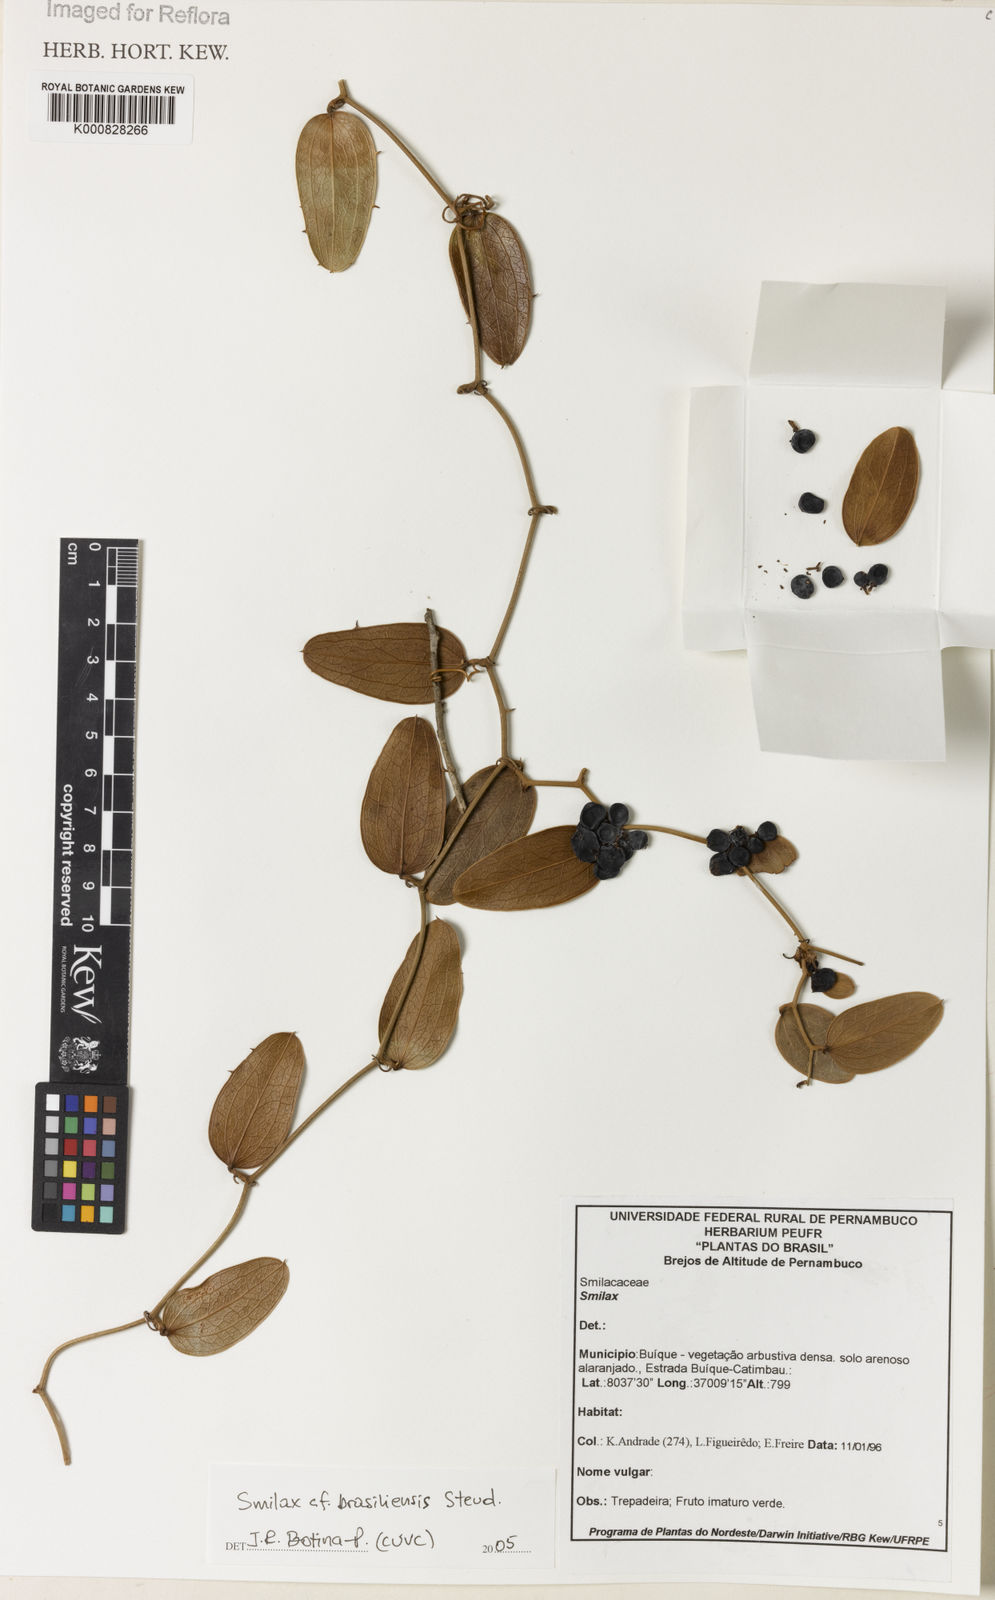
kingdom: Plantae
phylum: Tracheophyta
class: Liliopsida
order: Liliales
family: Smilacaceae
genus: Smilax
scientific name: Smilax brasiliensis
